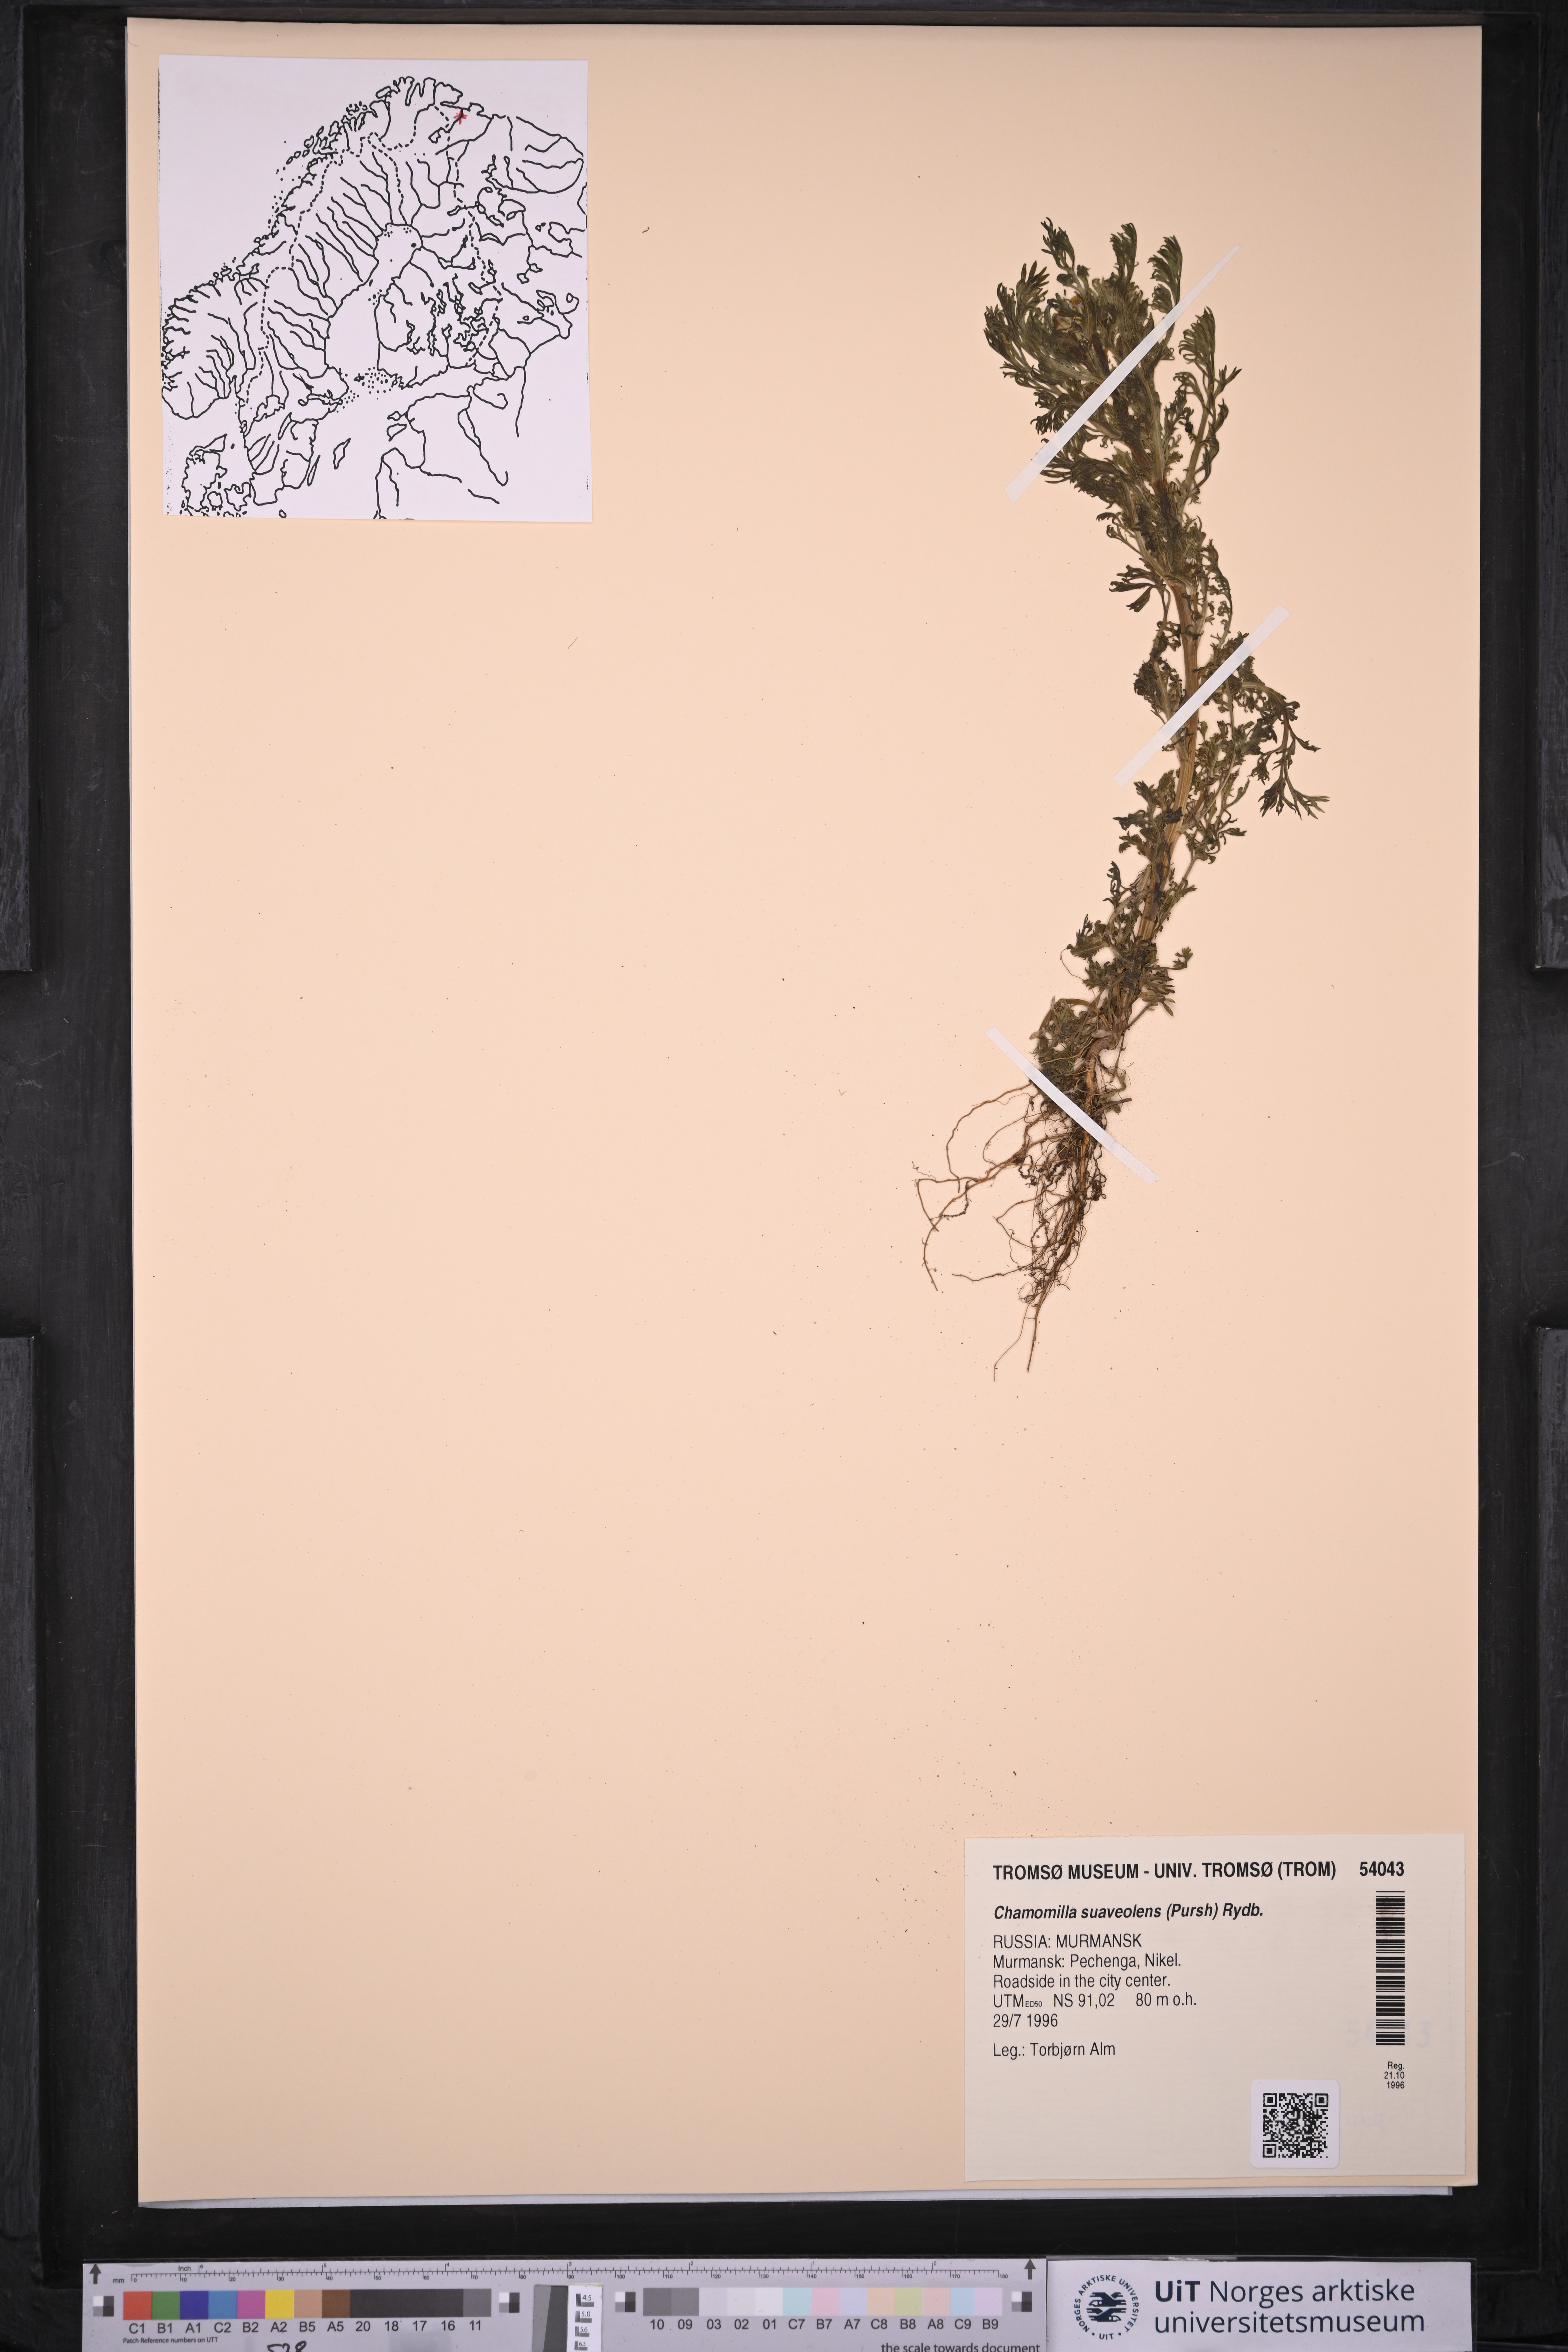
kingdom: Plantae
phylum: Tracheophyta
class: Magnoliopsida
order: Asterales
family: Asteraceae
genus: Matricaria
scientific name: Matricaria discoidea
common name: Disc mayweed
